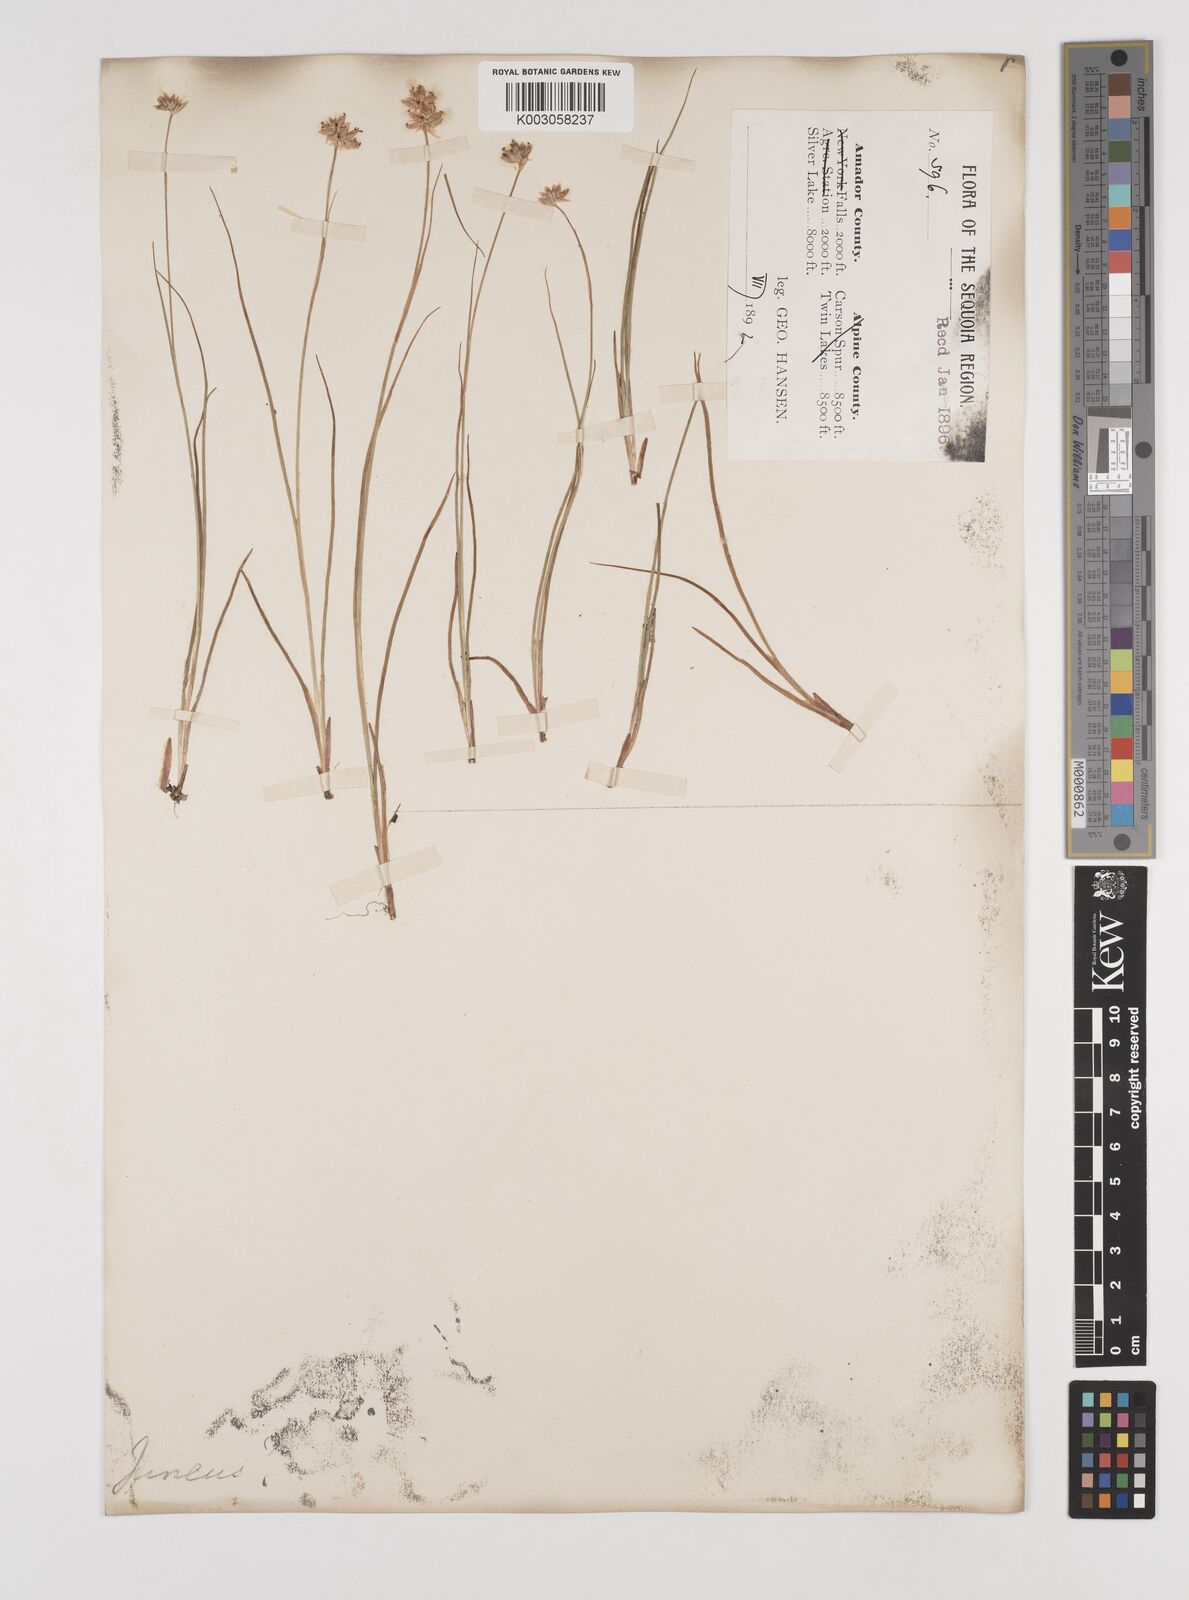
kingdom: Plantae
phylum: Tracheophyta
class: Liliopsida
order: Poales
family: Juncaceae
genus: Juncus
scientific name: Juncus
